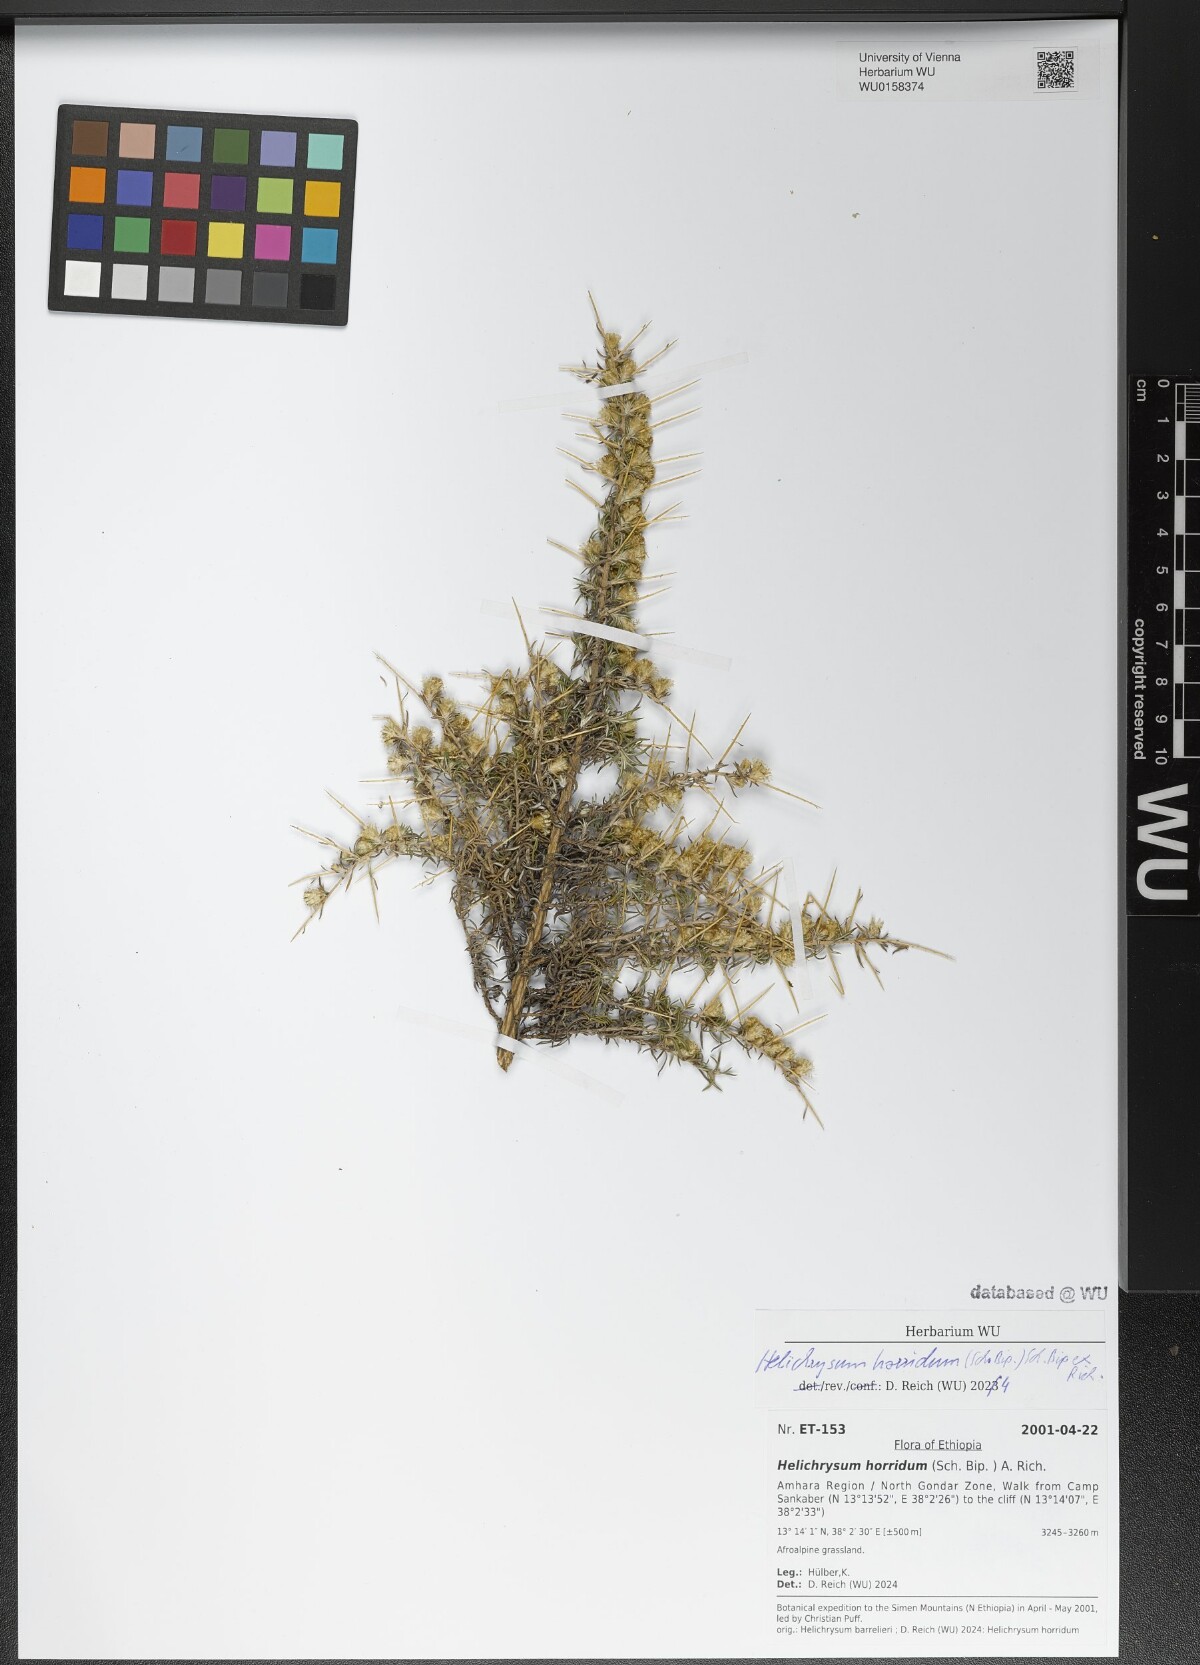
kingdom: Plantae
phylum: Tracheophyta
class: Magnoliopsida
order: Asterales
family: Asteraceae
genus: Helichrysum
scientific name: Helichrysum horridum
